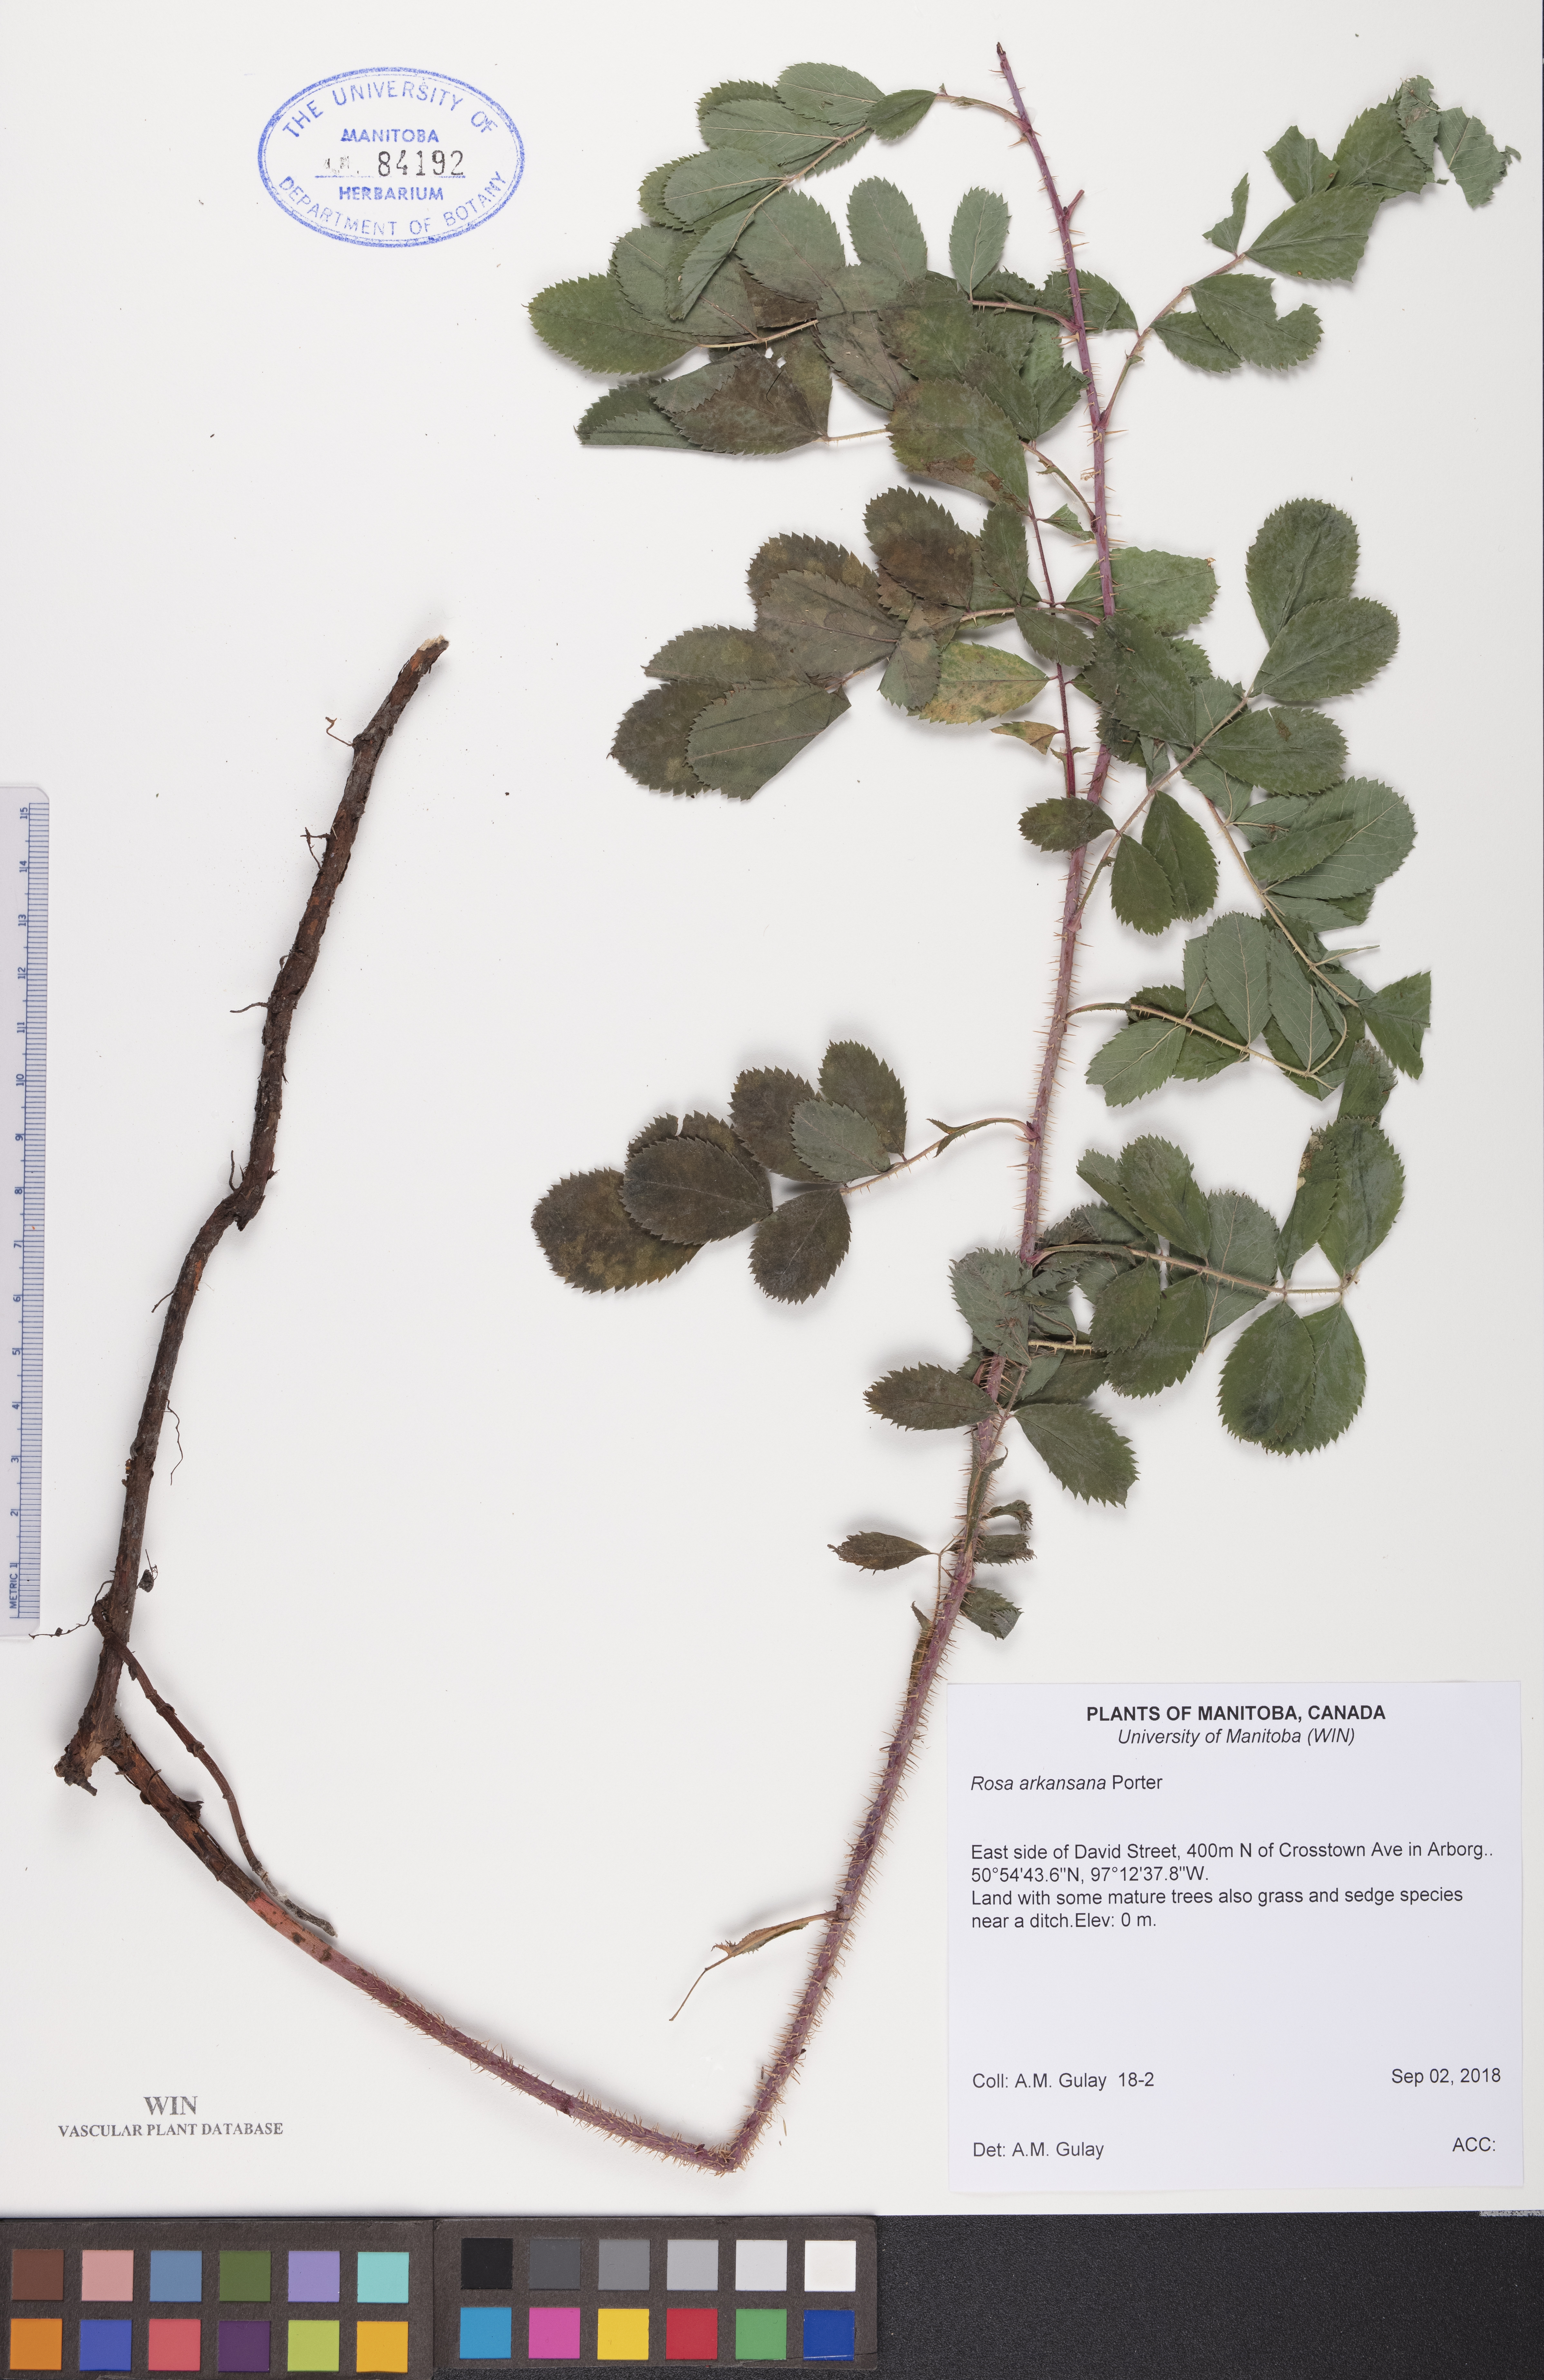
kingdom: Plantae
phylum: Tracheophyta
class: Magnoliopsida
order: Rosales
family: Rosaceae
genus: Rosa
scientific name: Rosa arkansana
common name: Prairie rose
